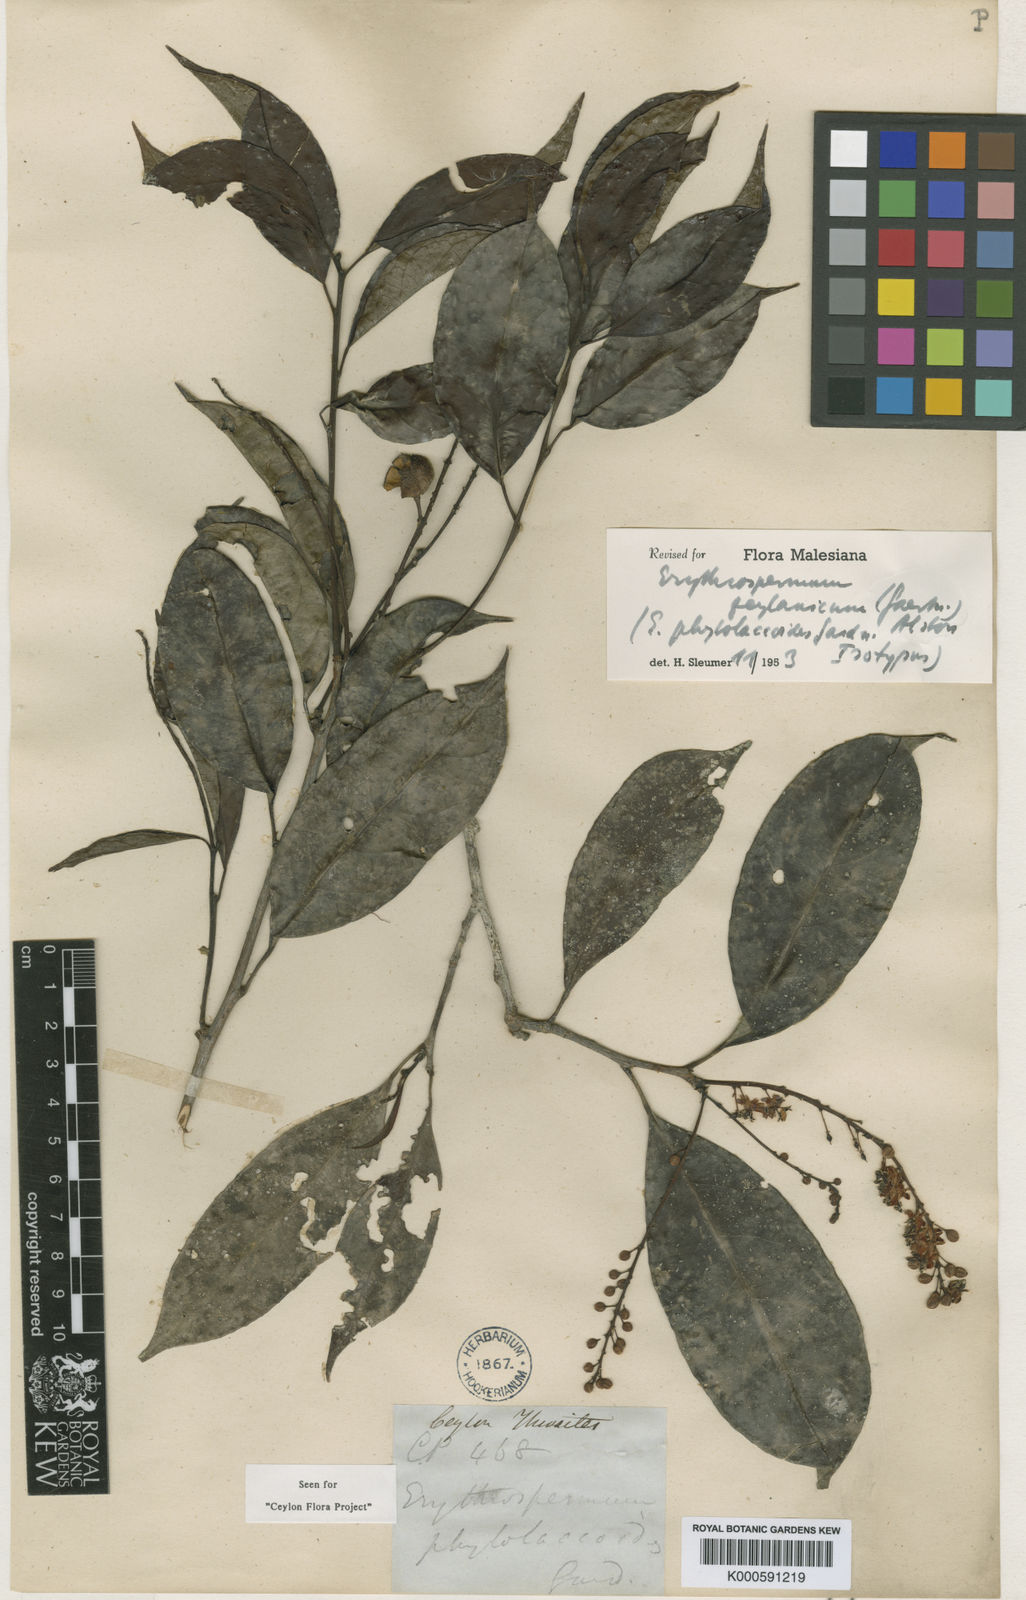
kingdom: Plantae
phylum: Tracheophyta
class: Magnoliopsida
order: Malpighiales
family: Achariaceae
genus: Erythrospermum
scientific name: Erythrospermum zeylanicum
